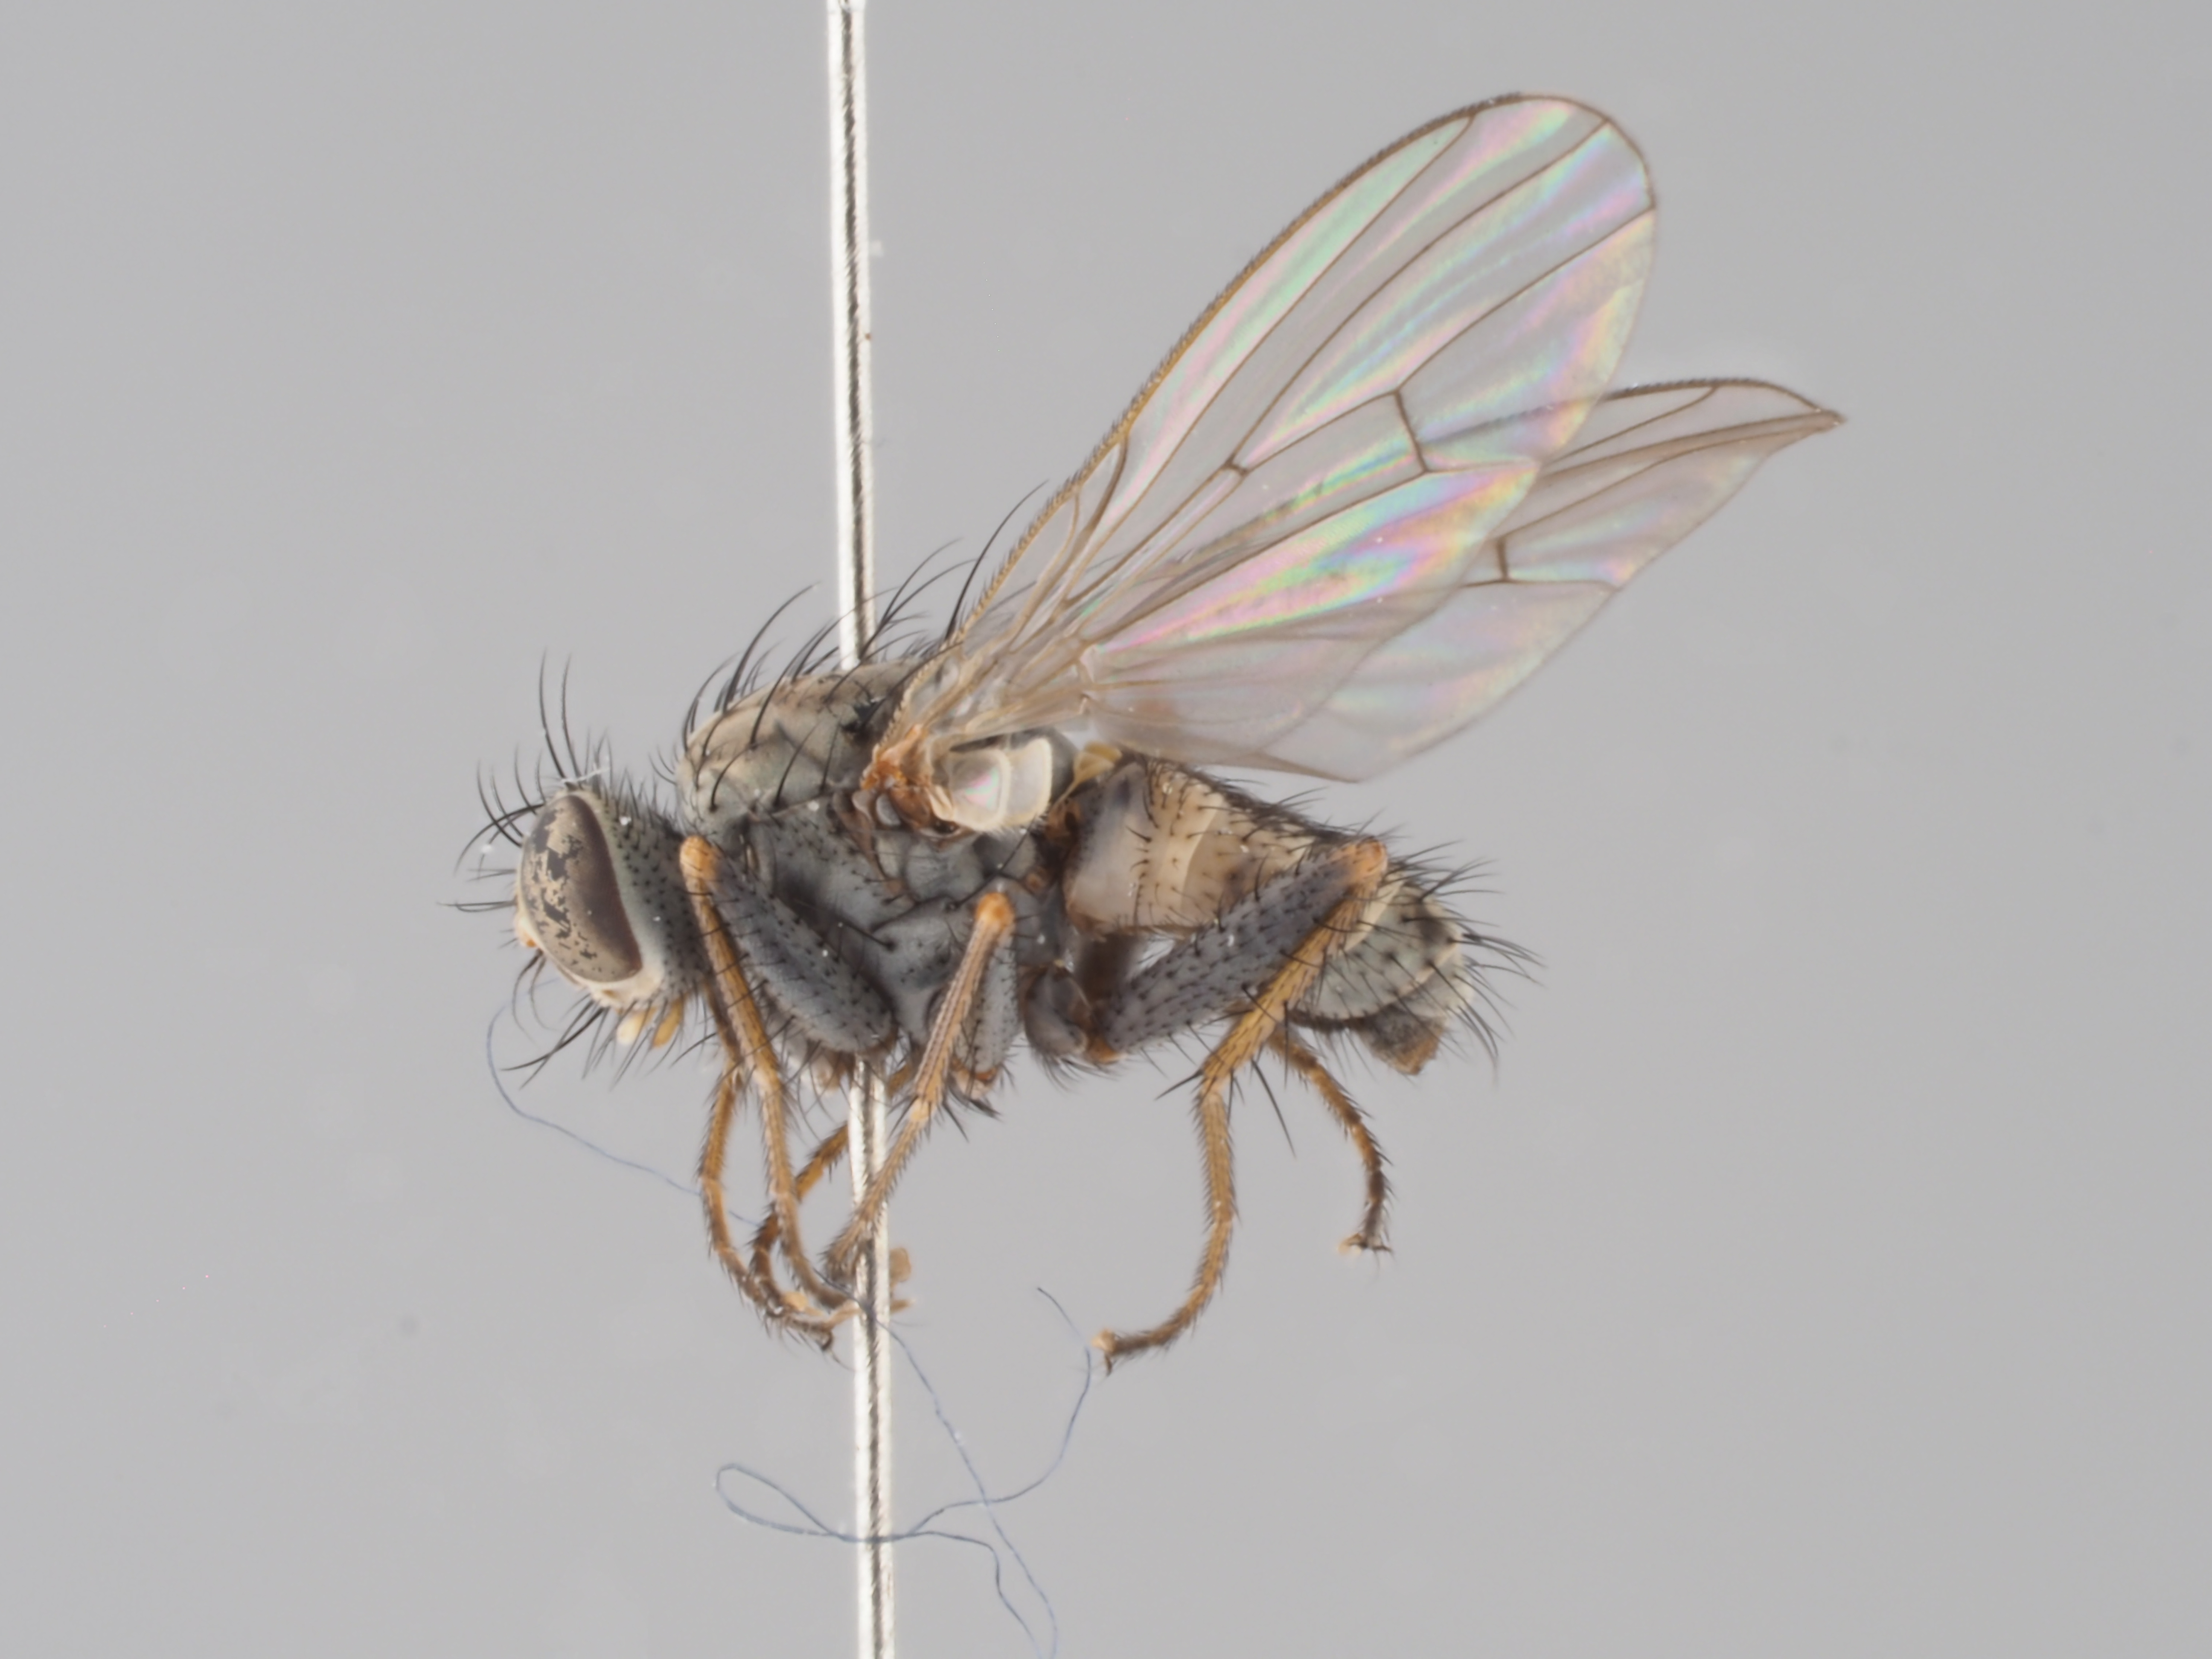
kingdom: Animalia
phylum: Arthropoda
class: Insecta
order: Diptera
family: Muscidae
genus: Caricea
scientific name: Caricea spuria
